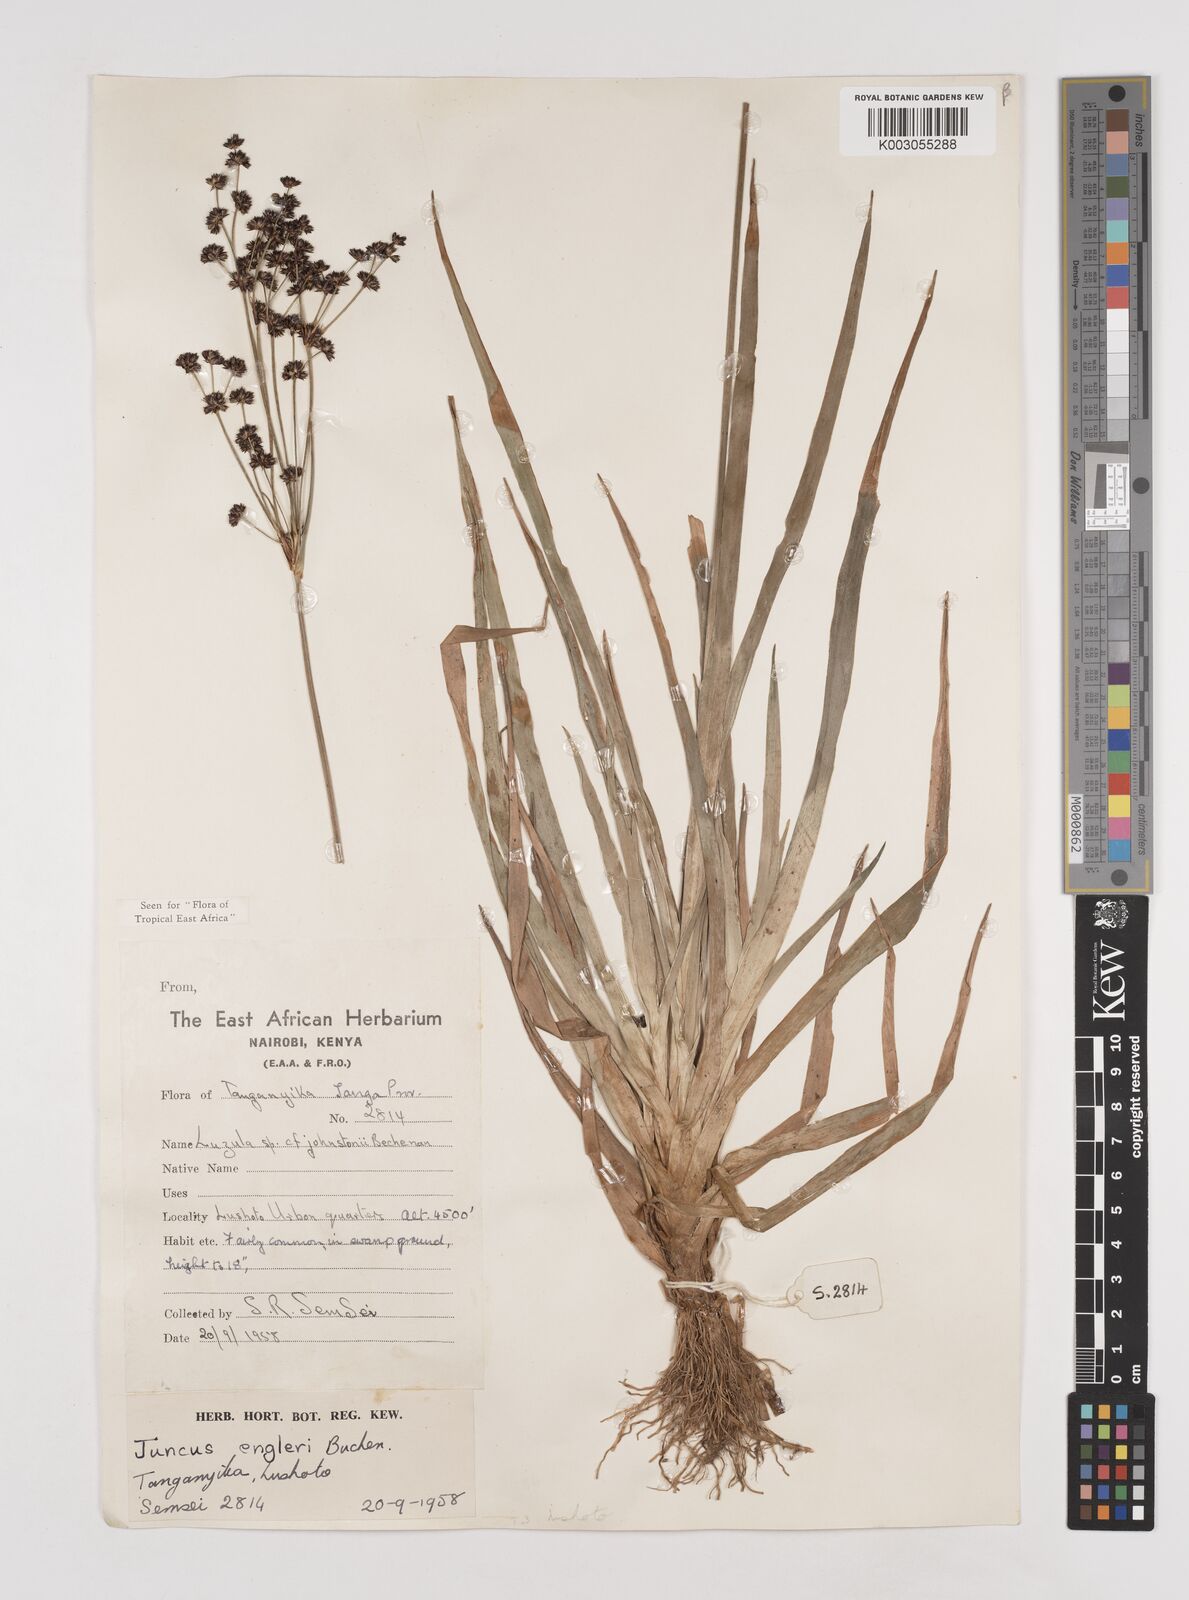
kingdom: Plantae
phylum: Tracheophyta
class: Liliopsida
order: Poales
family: Juncaceae
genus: Juncus
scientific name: Juncus engleri
